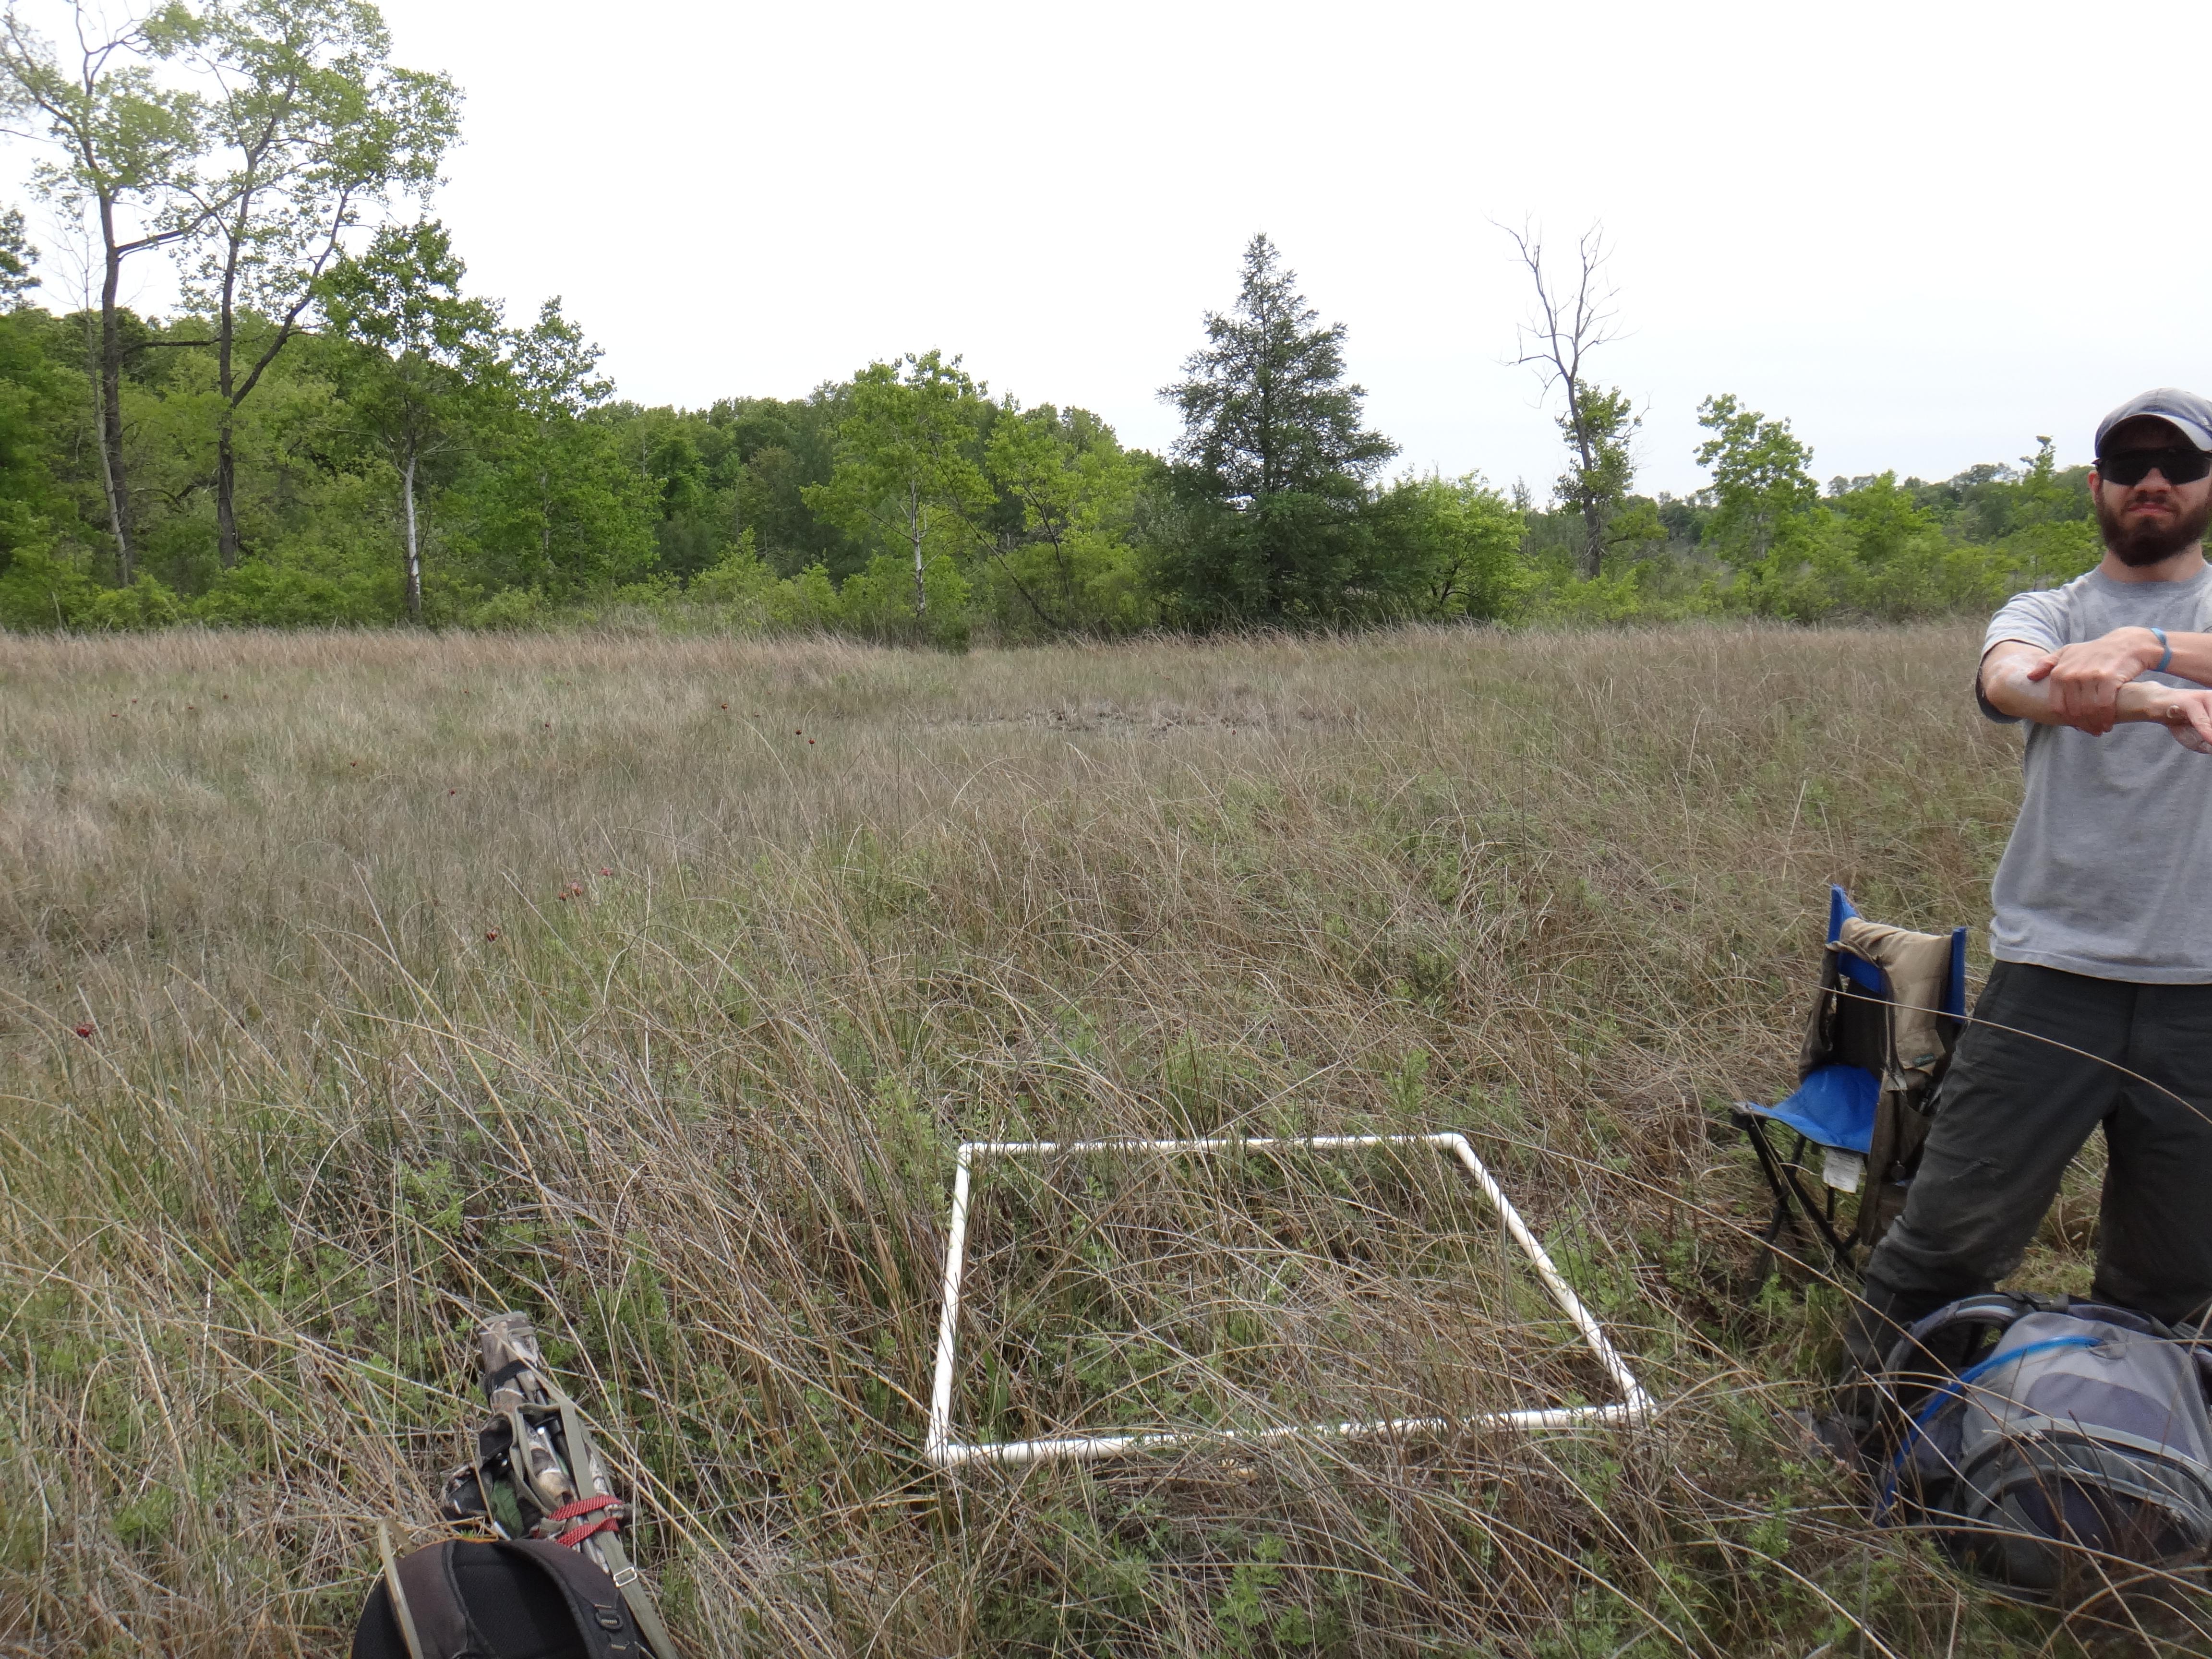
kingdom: Plantae
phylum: Tracheophyta
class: Magnoliopsida
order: Asterales
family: Asteraceae
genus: Silphium
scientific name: Silphium terebinthinaceum
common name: Basal-leaf rosinweed
